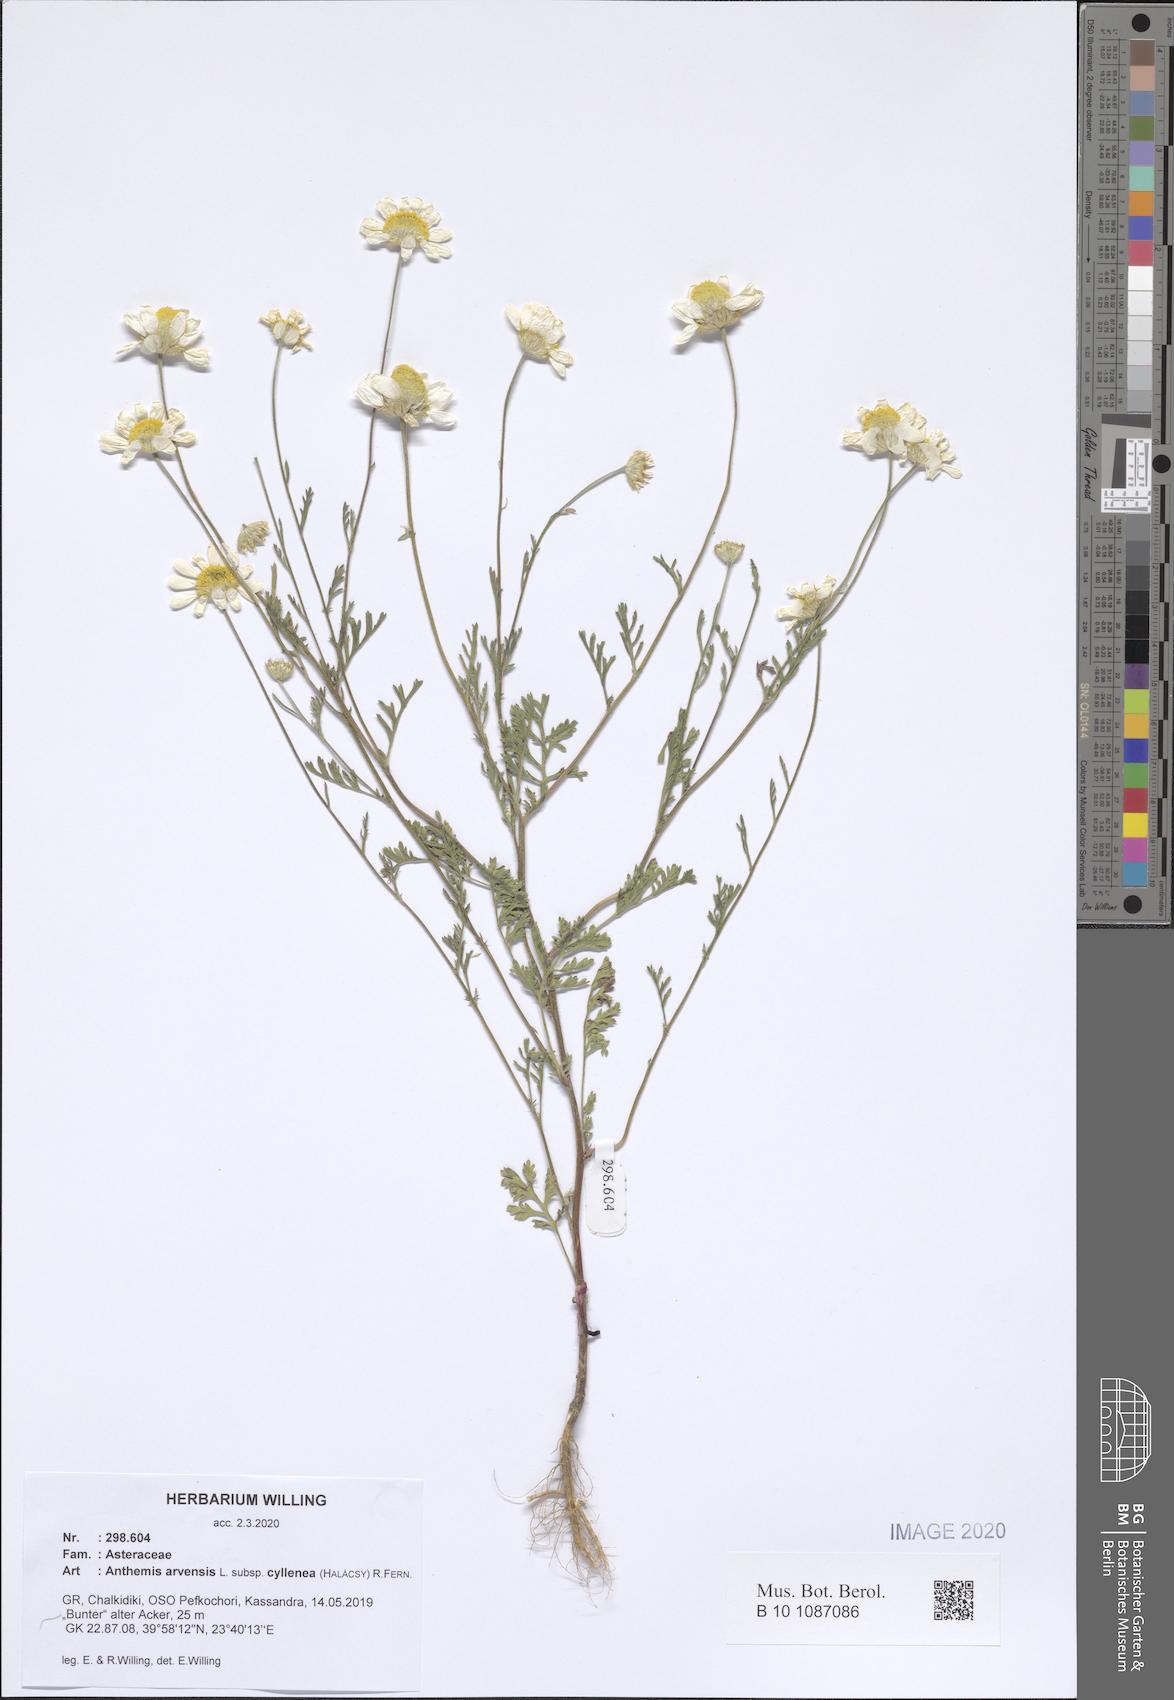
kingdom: Plantae
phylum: Tracheophyta
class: Magnoliopsida
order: Asterales
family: Asteraceae
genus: Anthemis
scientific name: Anthemis arvensis
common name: Corn chamomile
